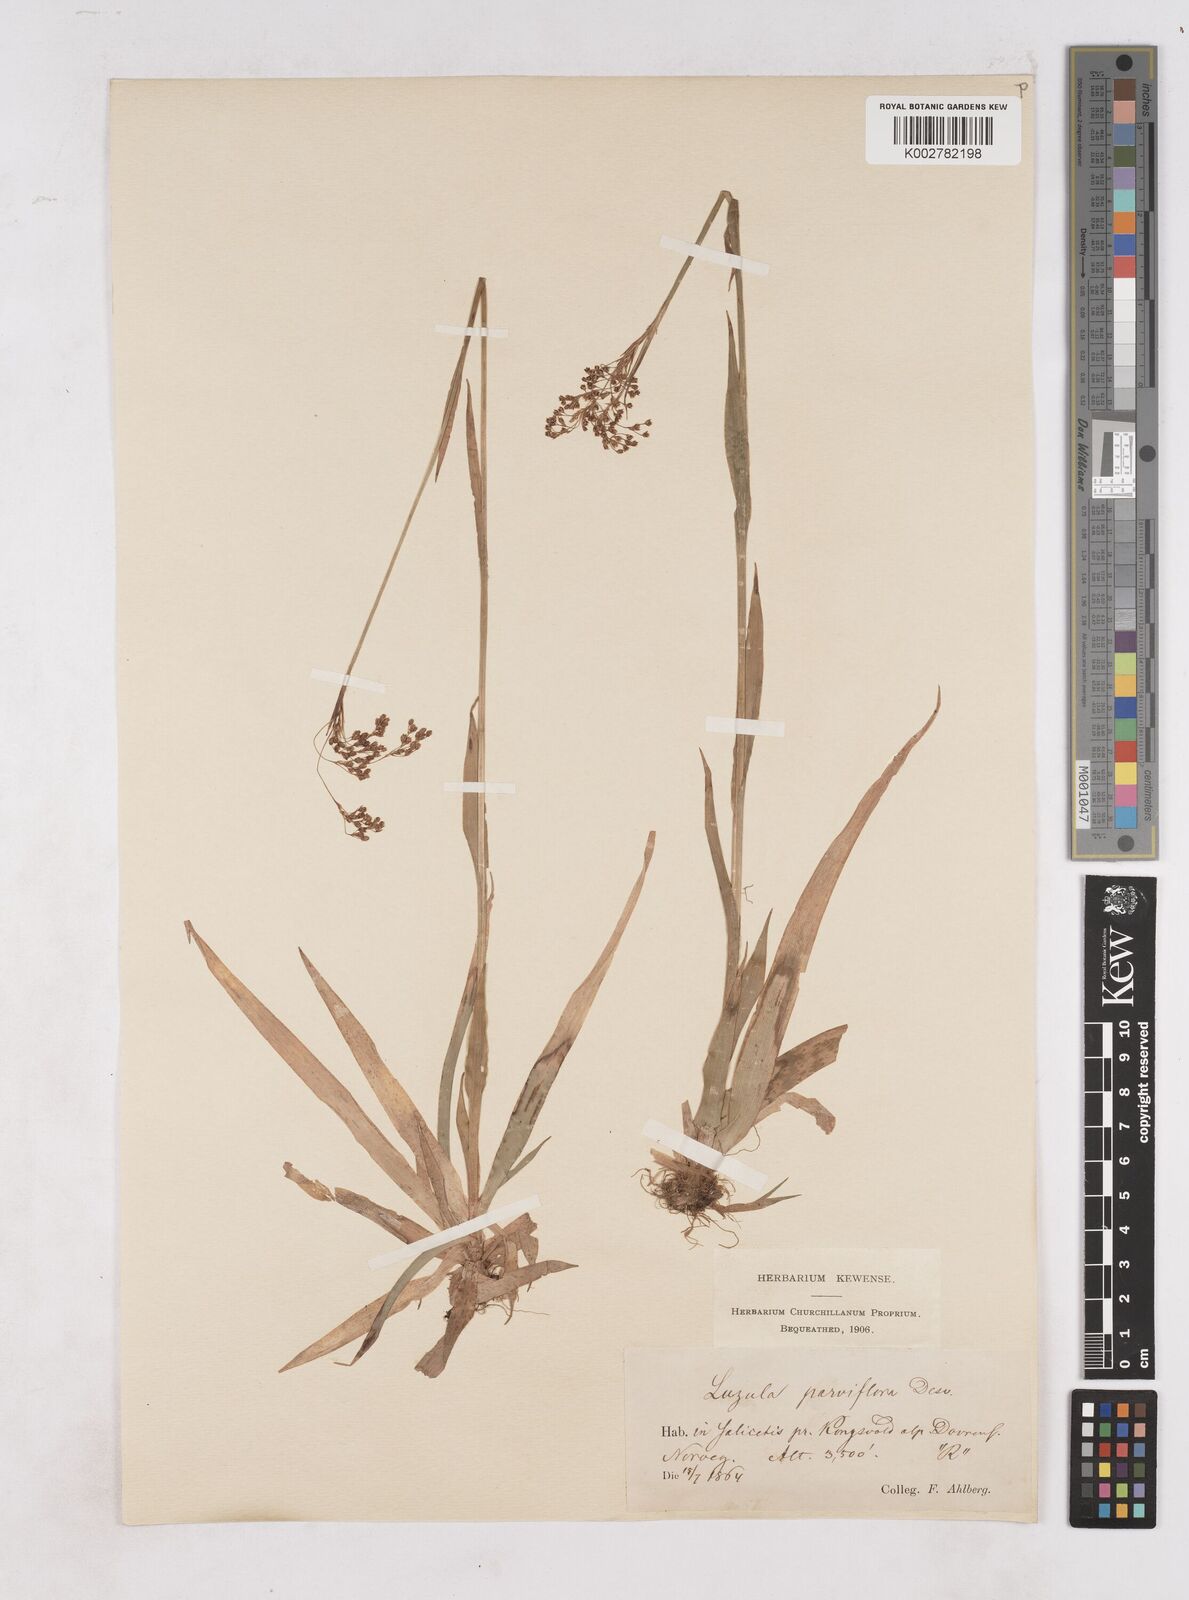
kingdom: Plantae
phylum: Tracheophyta
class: Liliopsida
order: Poales
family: Juncaceae
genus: Luzula
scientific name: Luzula parviflora
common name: Millet woodrush
